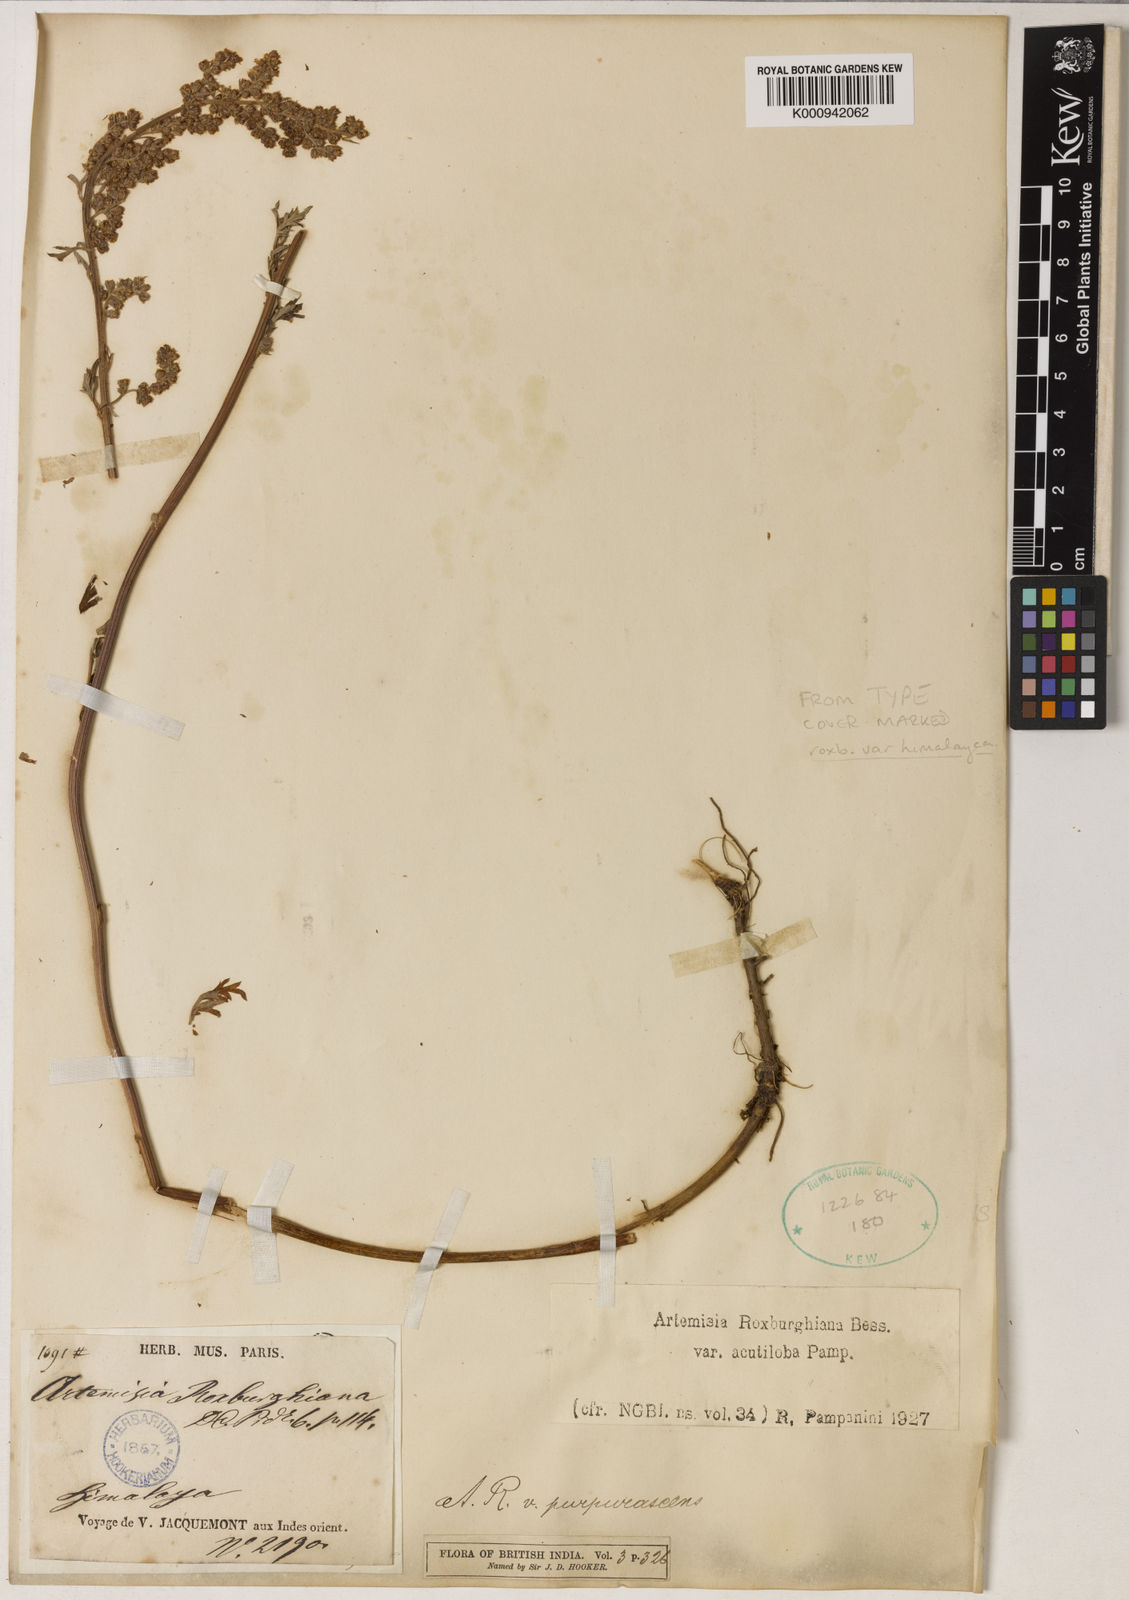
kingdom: Plantae
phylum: Tracheophyta
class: Magnoliopsida
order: Asterales
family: Asteraceae
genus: Artemisia
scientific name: Artemisia roxburghiana
